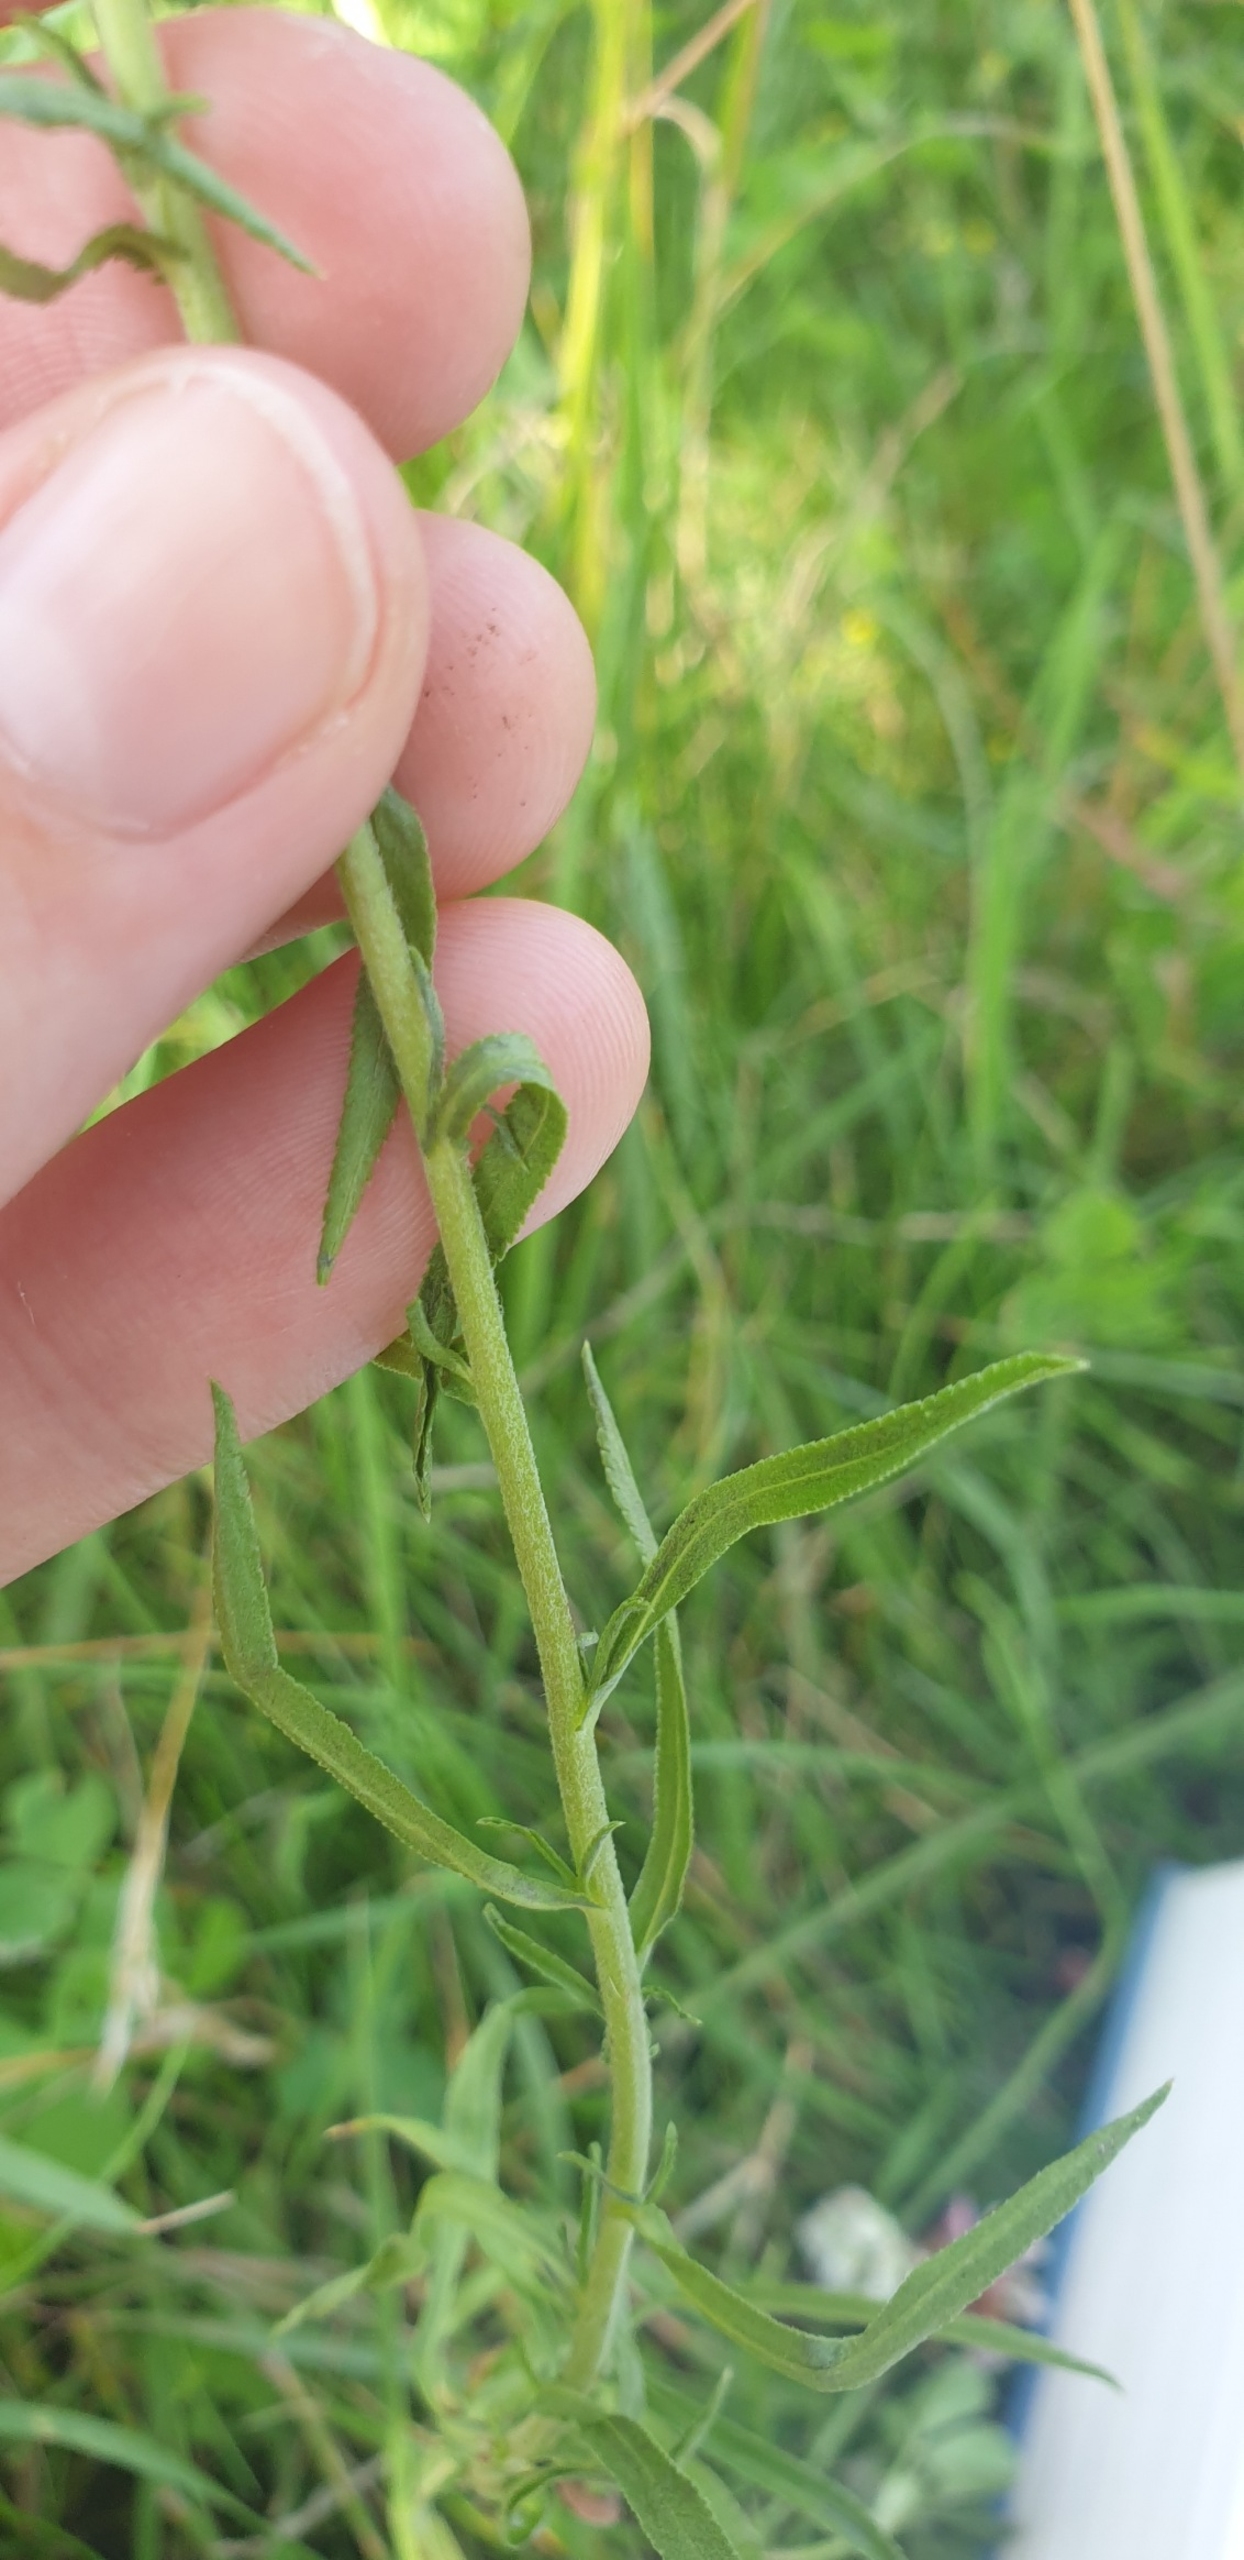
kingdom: Plantae
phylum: Tracheophyta
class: Magnoliopsida
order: Asterales
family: Asteraceae
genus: Achillea
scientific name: Achillea ptarmica
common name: Nyse-røllike
